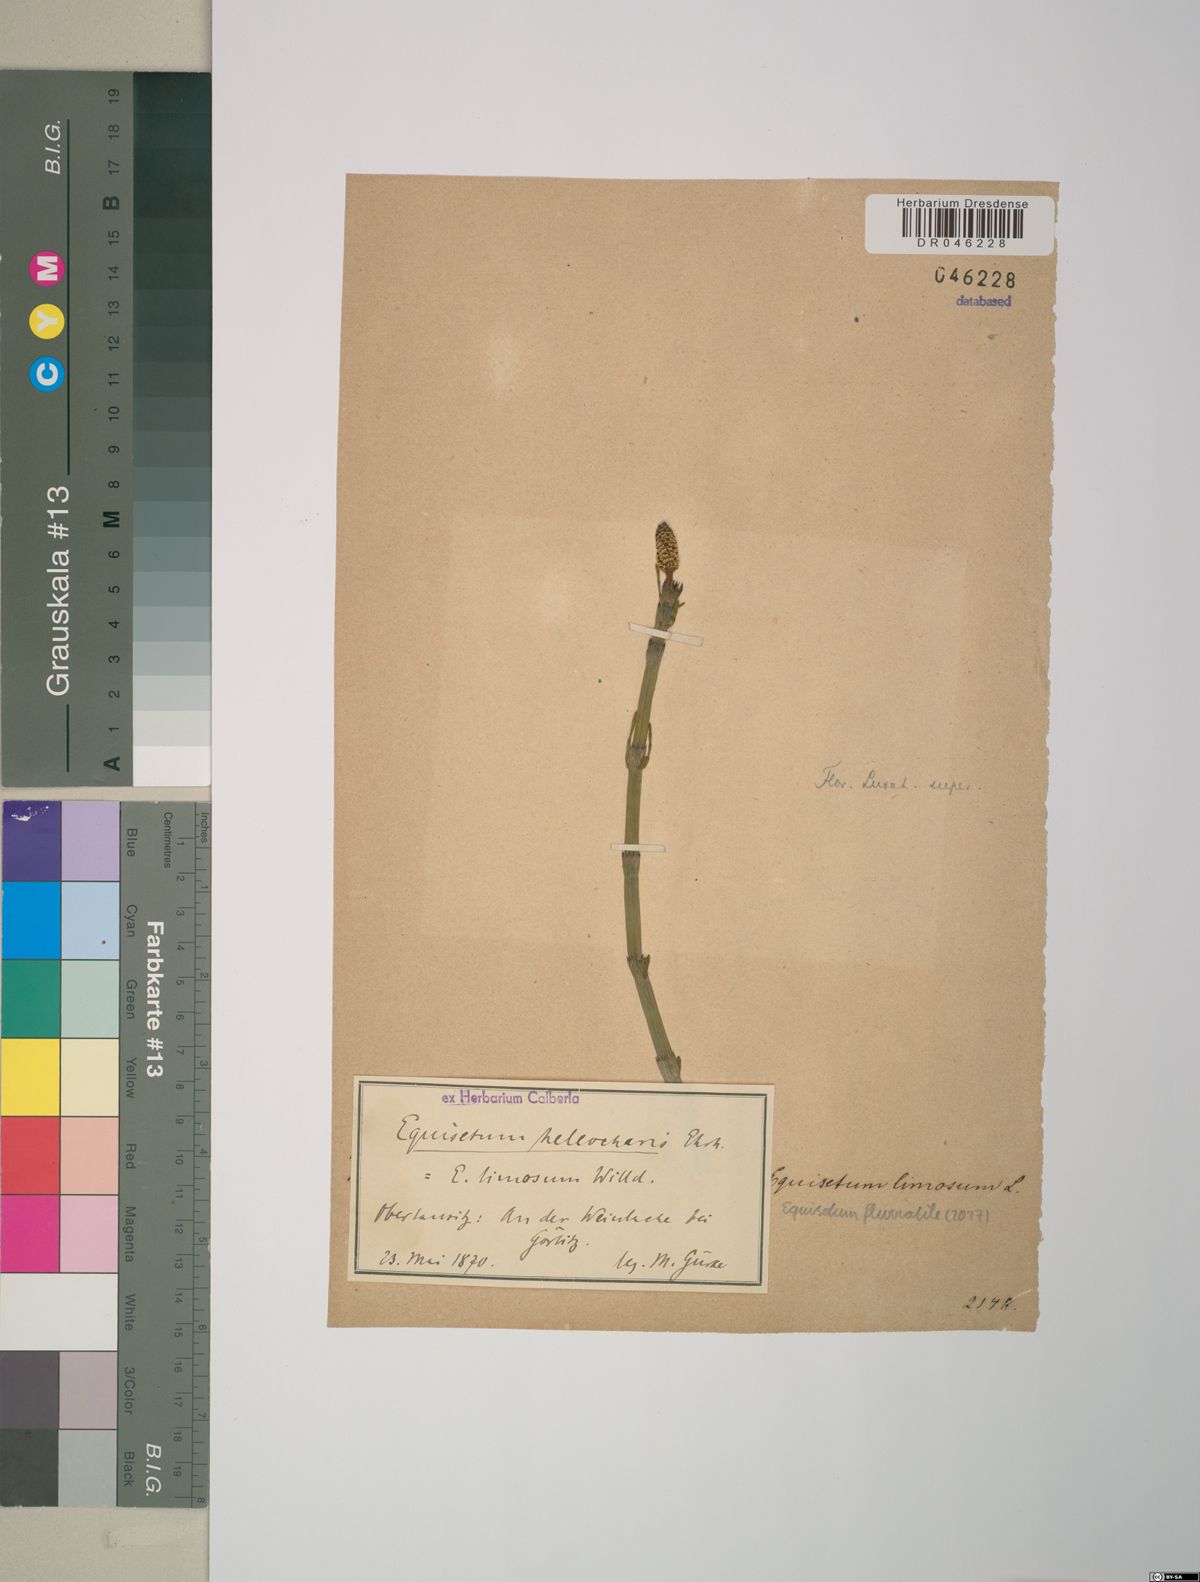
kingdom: Plantae
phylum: Tracheophyta
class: Polypodiopsida
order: Equisetales
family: Equisetaceae
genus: Equisetum
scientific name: Equisetum fluviatile
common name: Water horsetail
